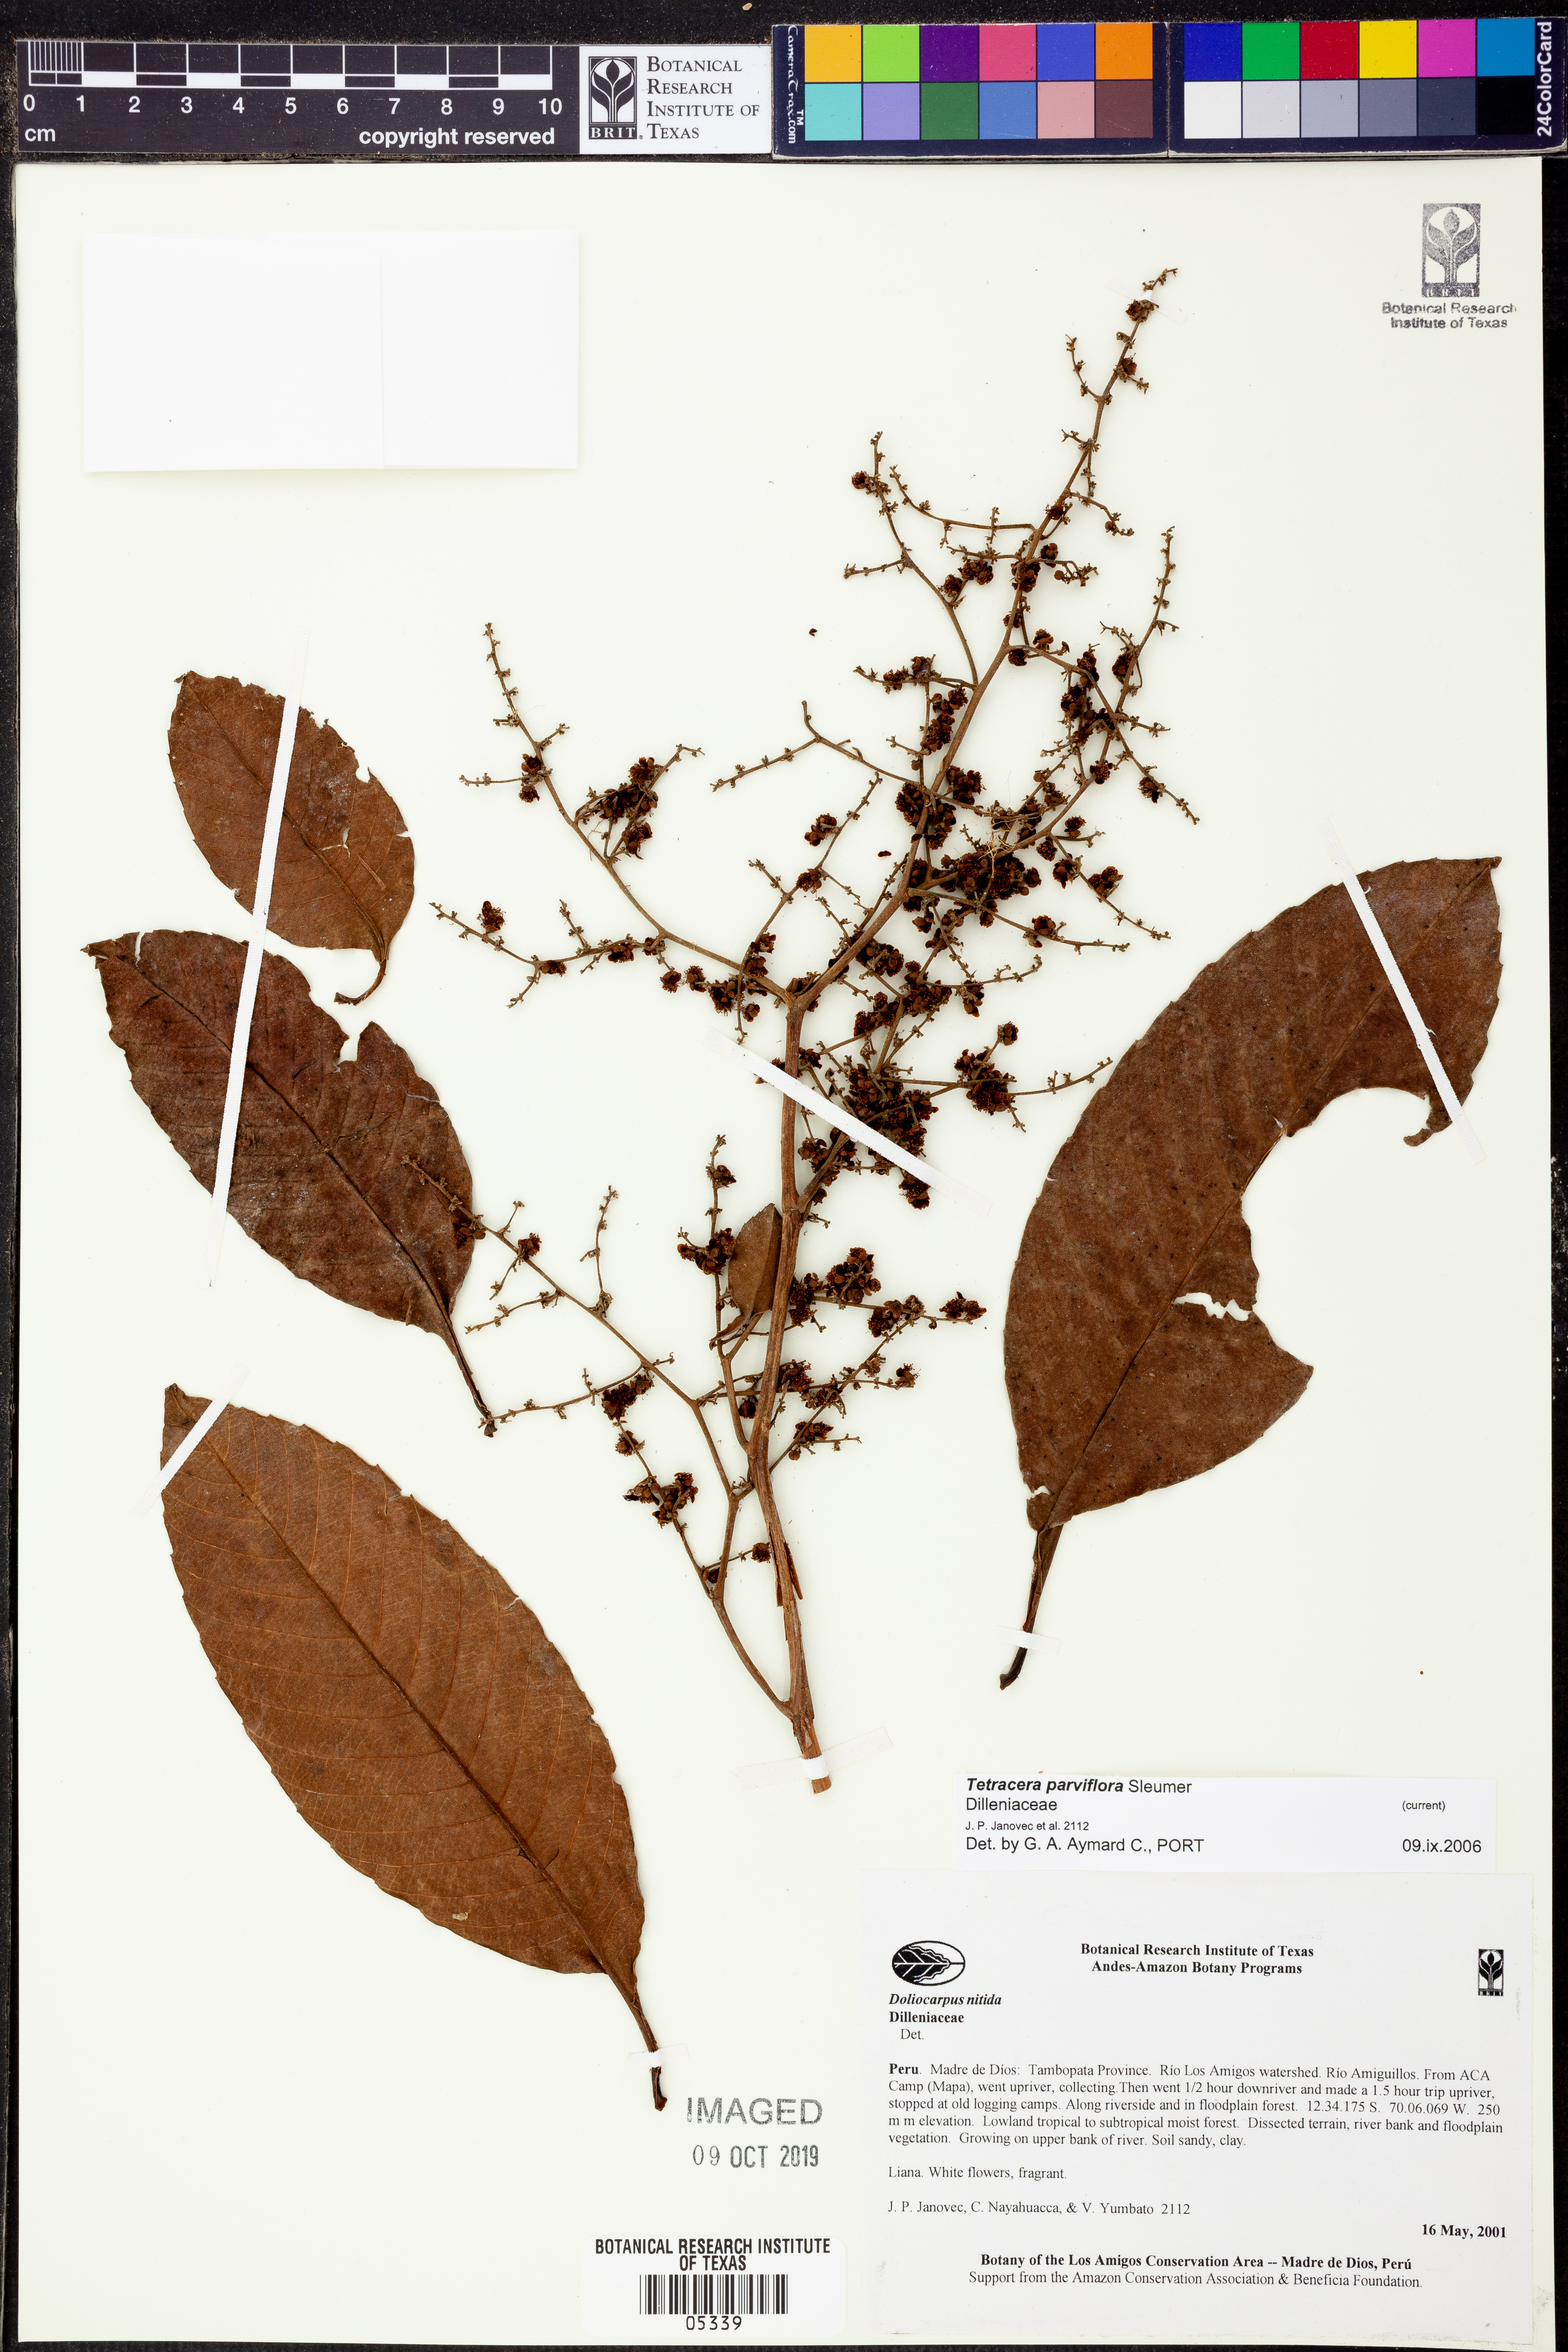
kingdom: Plantae
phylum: Tracheophyta
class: Magnoliopsida
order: Dilleniales
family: Dilleniaceae
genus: Tetracera
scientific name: Tetracera
